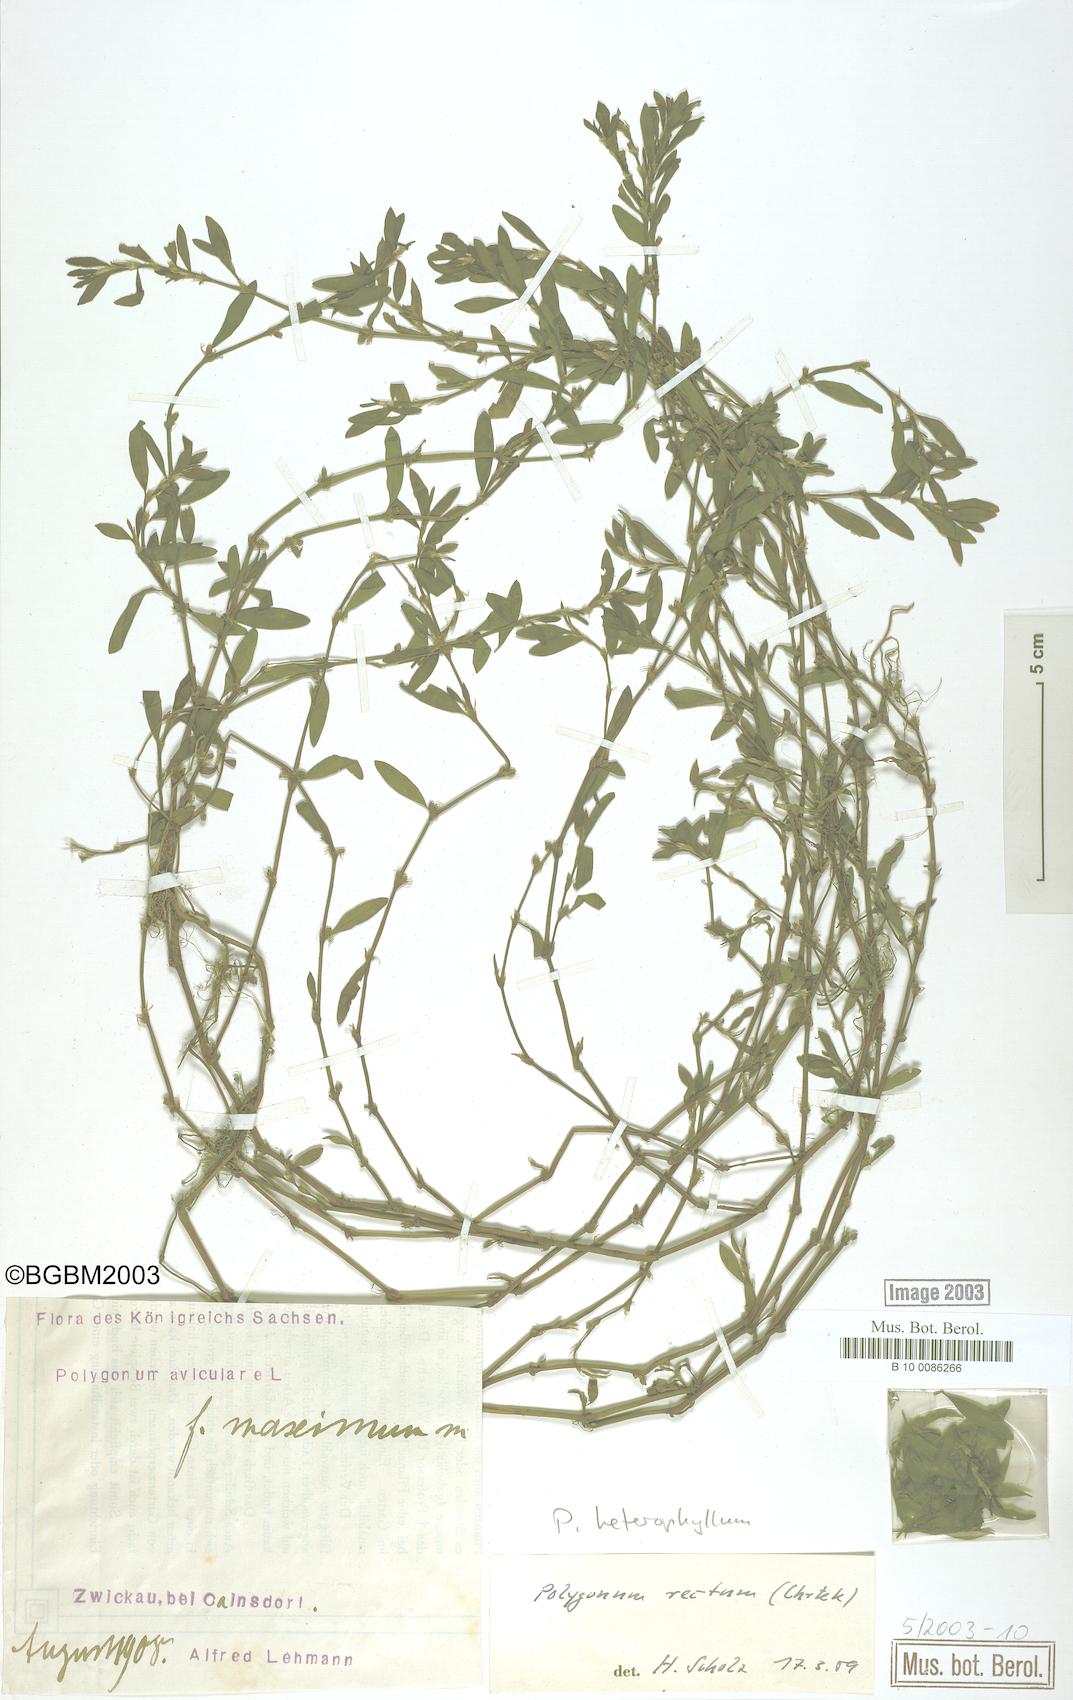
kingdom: Plantae
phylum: Tracheophyta
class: Magnoliopsida
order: Caryophyllales
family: Polygonaceae
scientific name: Polygonaceae
